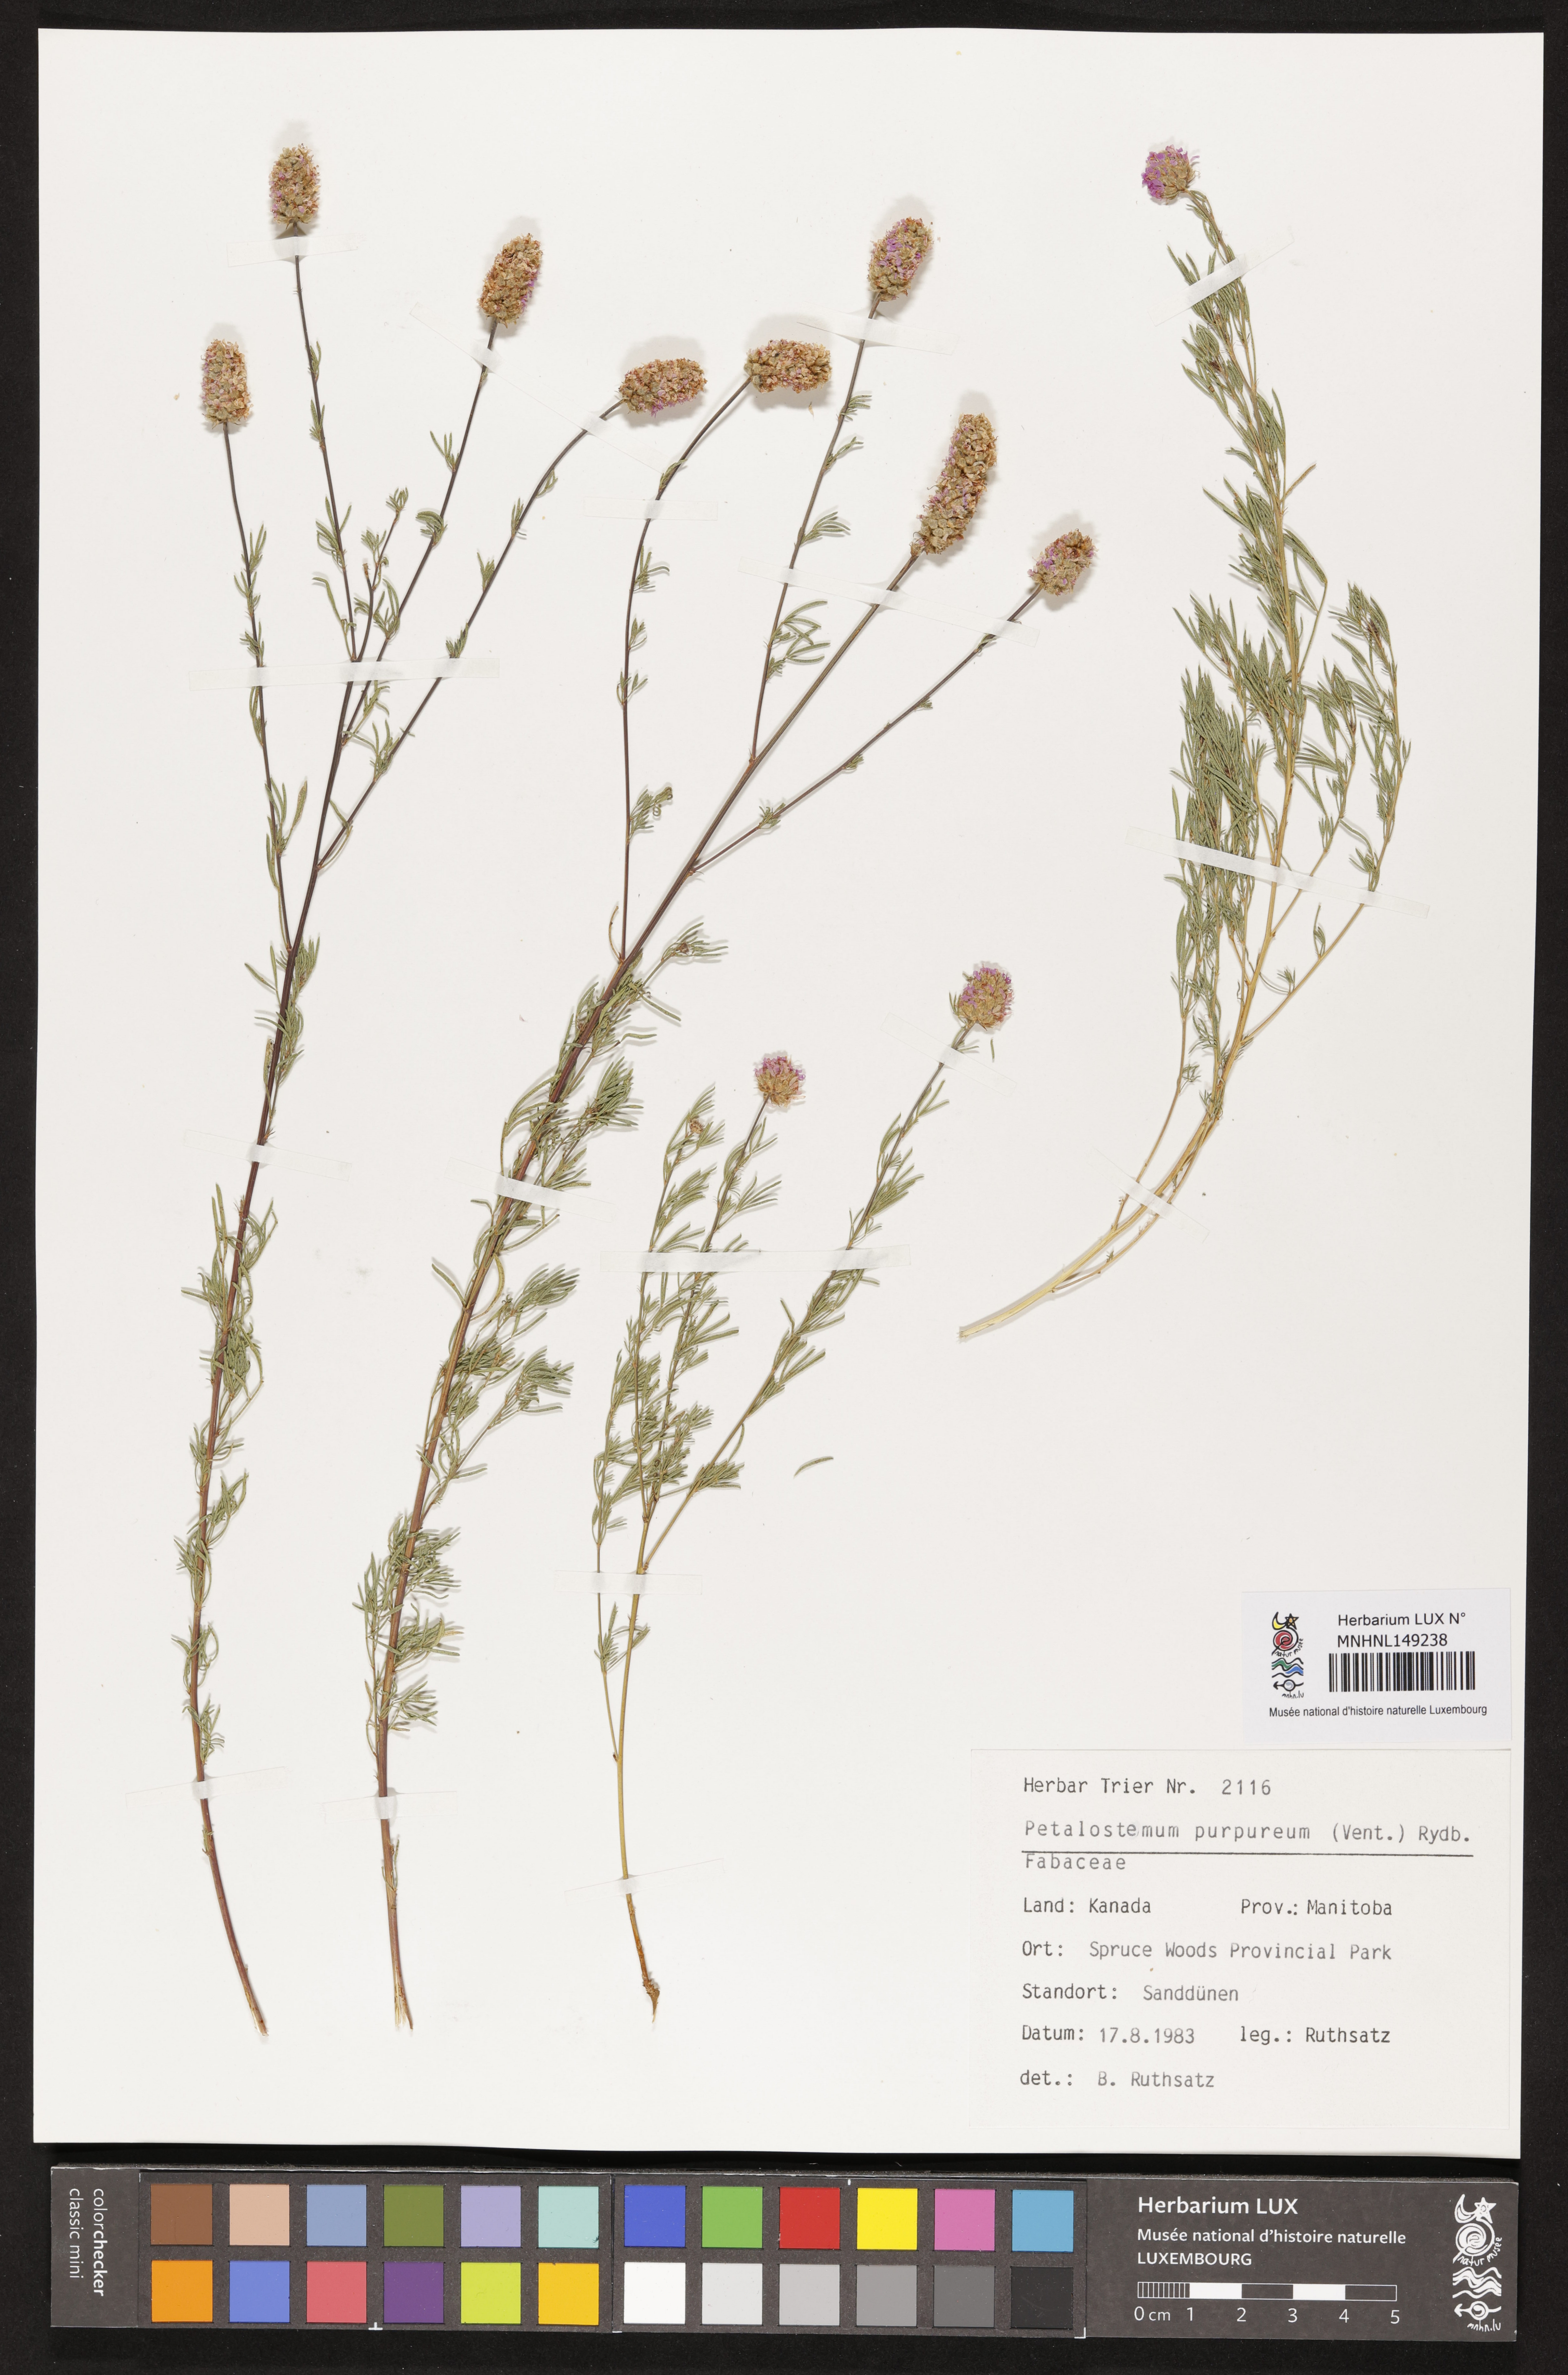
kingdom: Plantae
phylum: Tracheophyta
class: Magnoliopsida
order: Fabales
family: Fabaceae
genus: Dalea
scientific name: Dalea purpurea
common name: Purple prairie-clover
